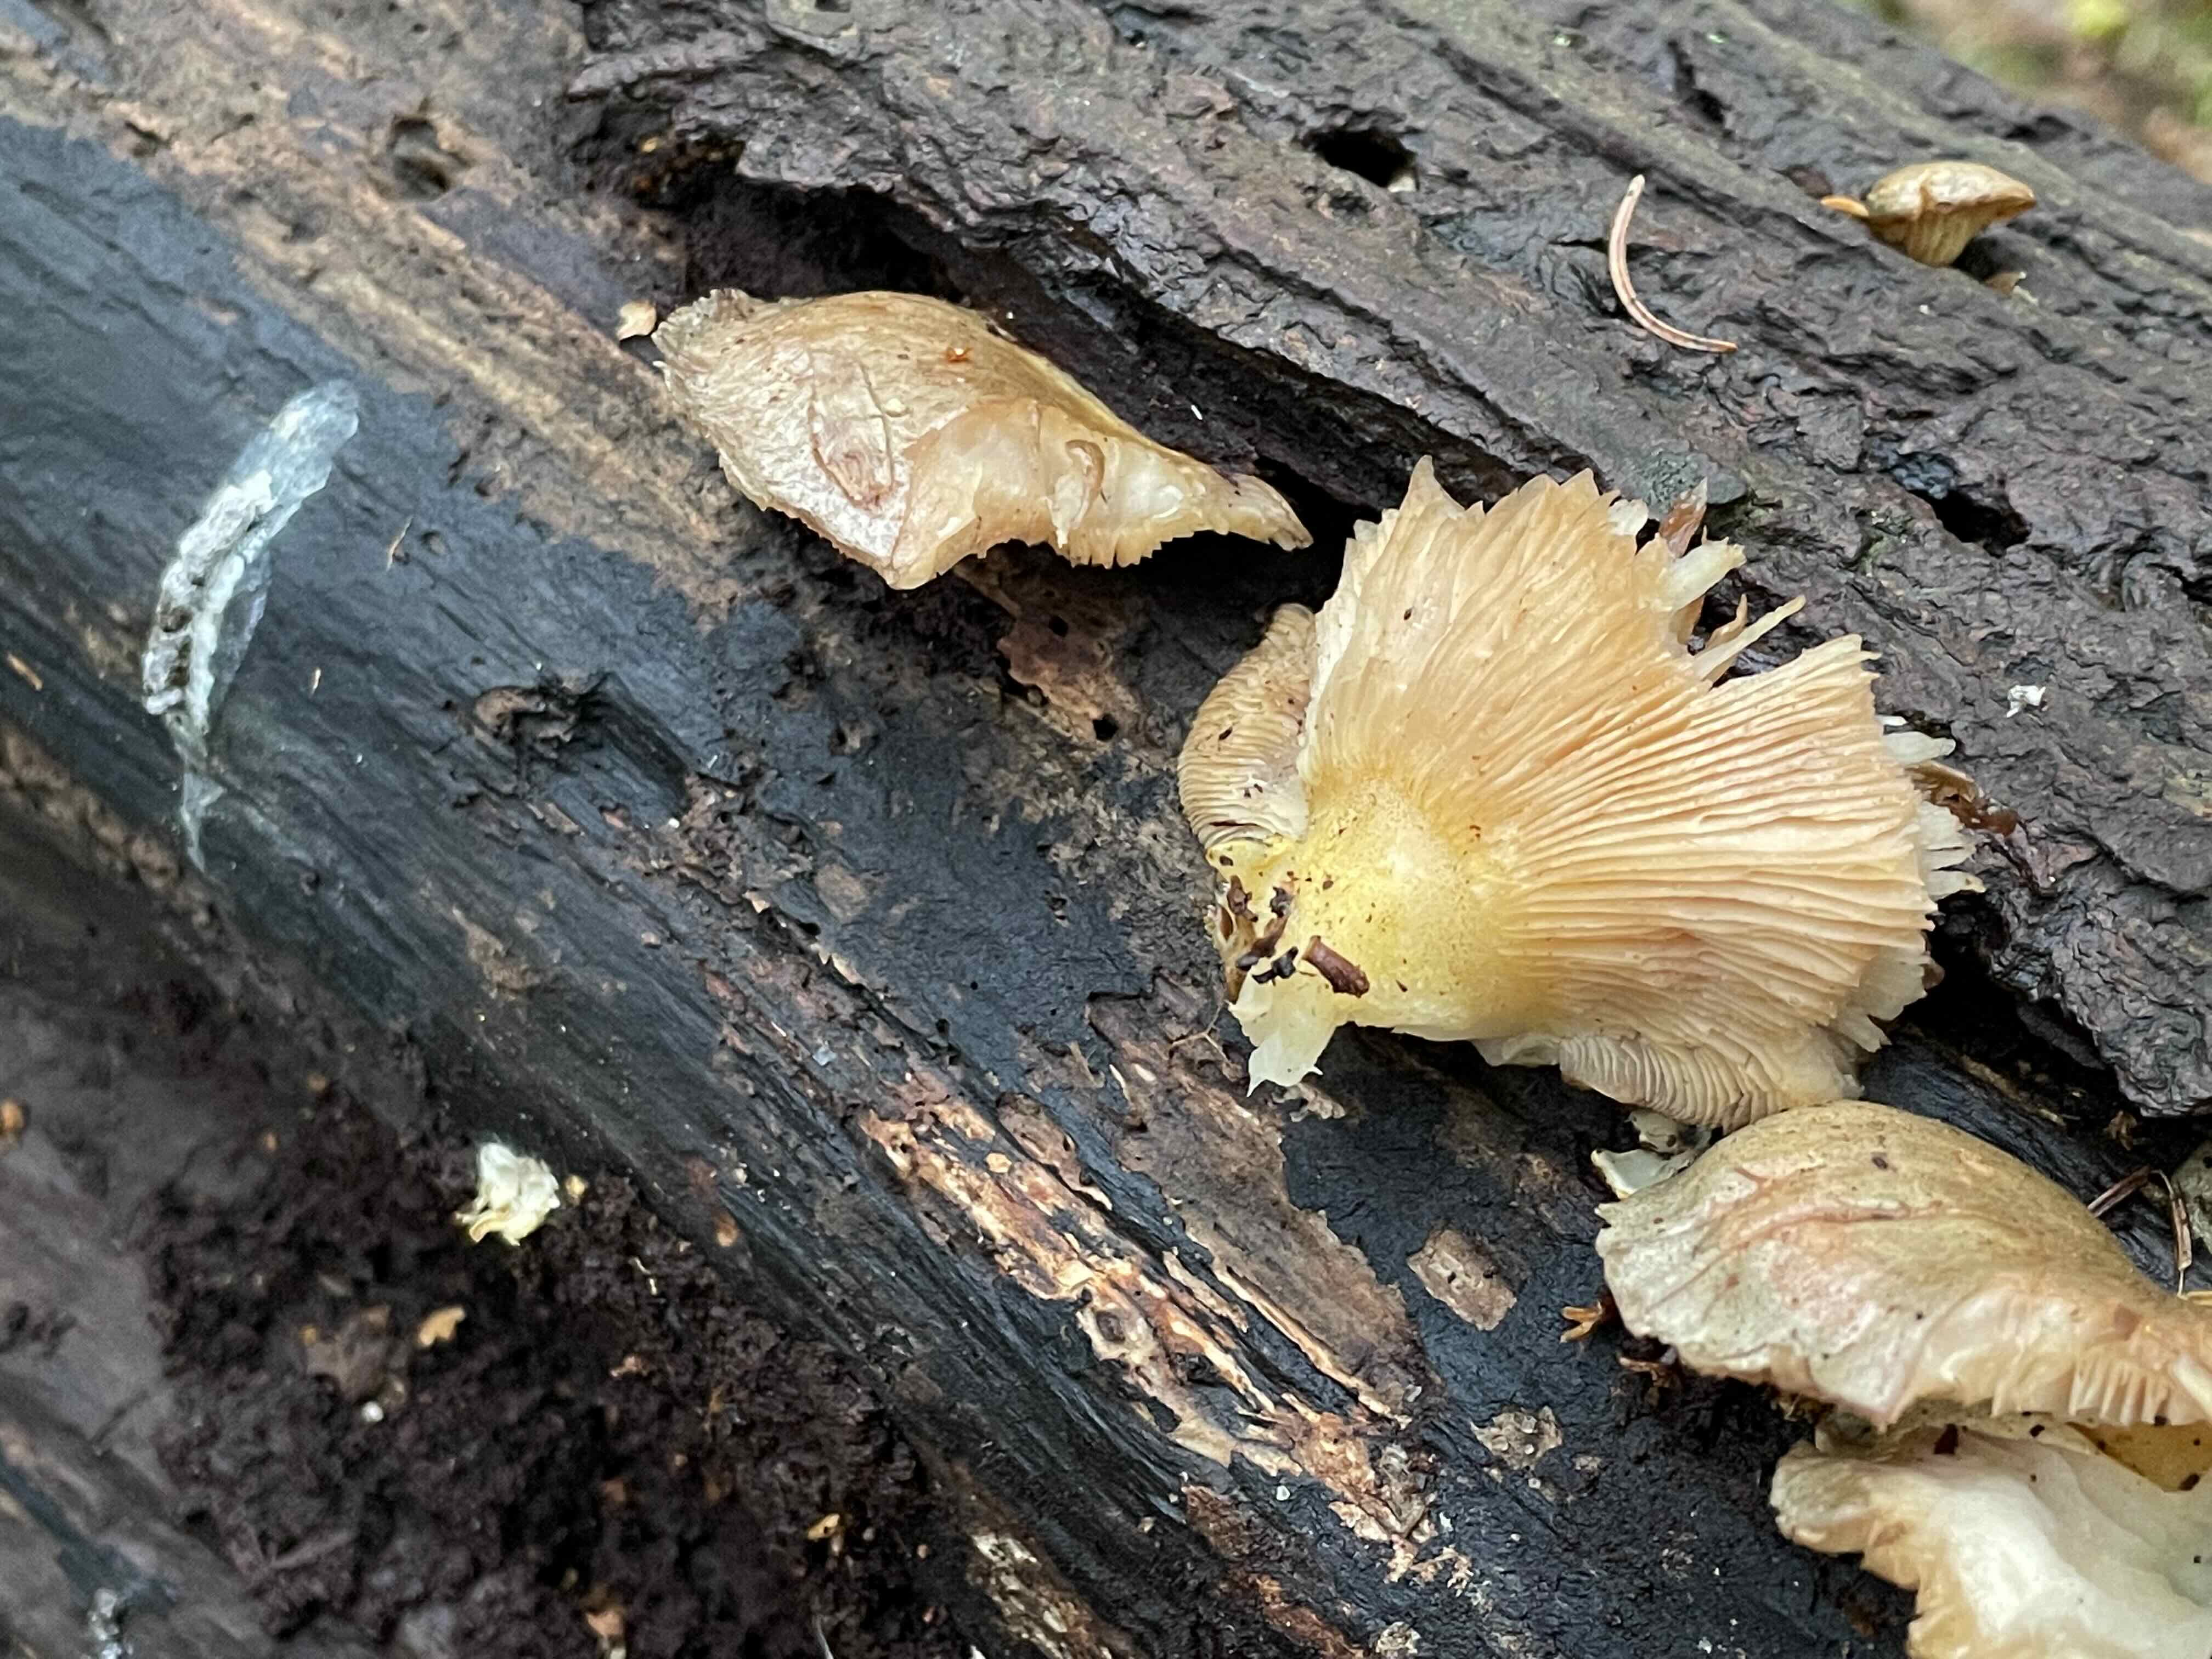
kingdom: Fungi
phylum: Basidiomycota
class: Agaricomycetes
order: Agaricales
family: Sarcomyxaceae
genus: Sarcomyxa
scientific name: Sarcomyxa serotina
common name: gummihat
